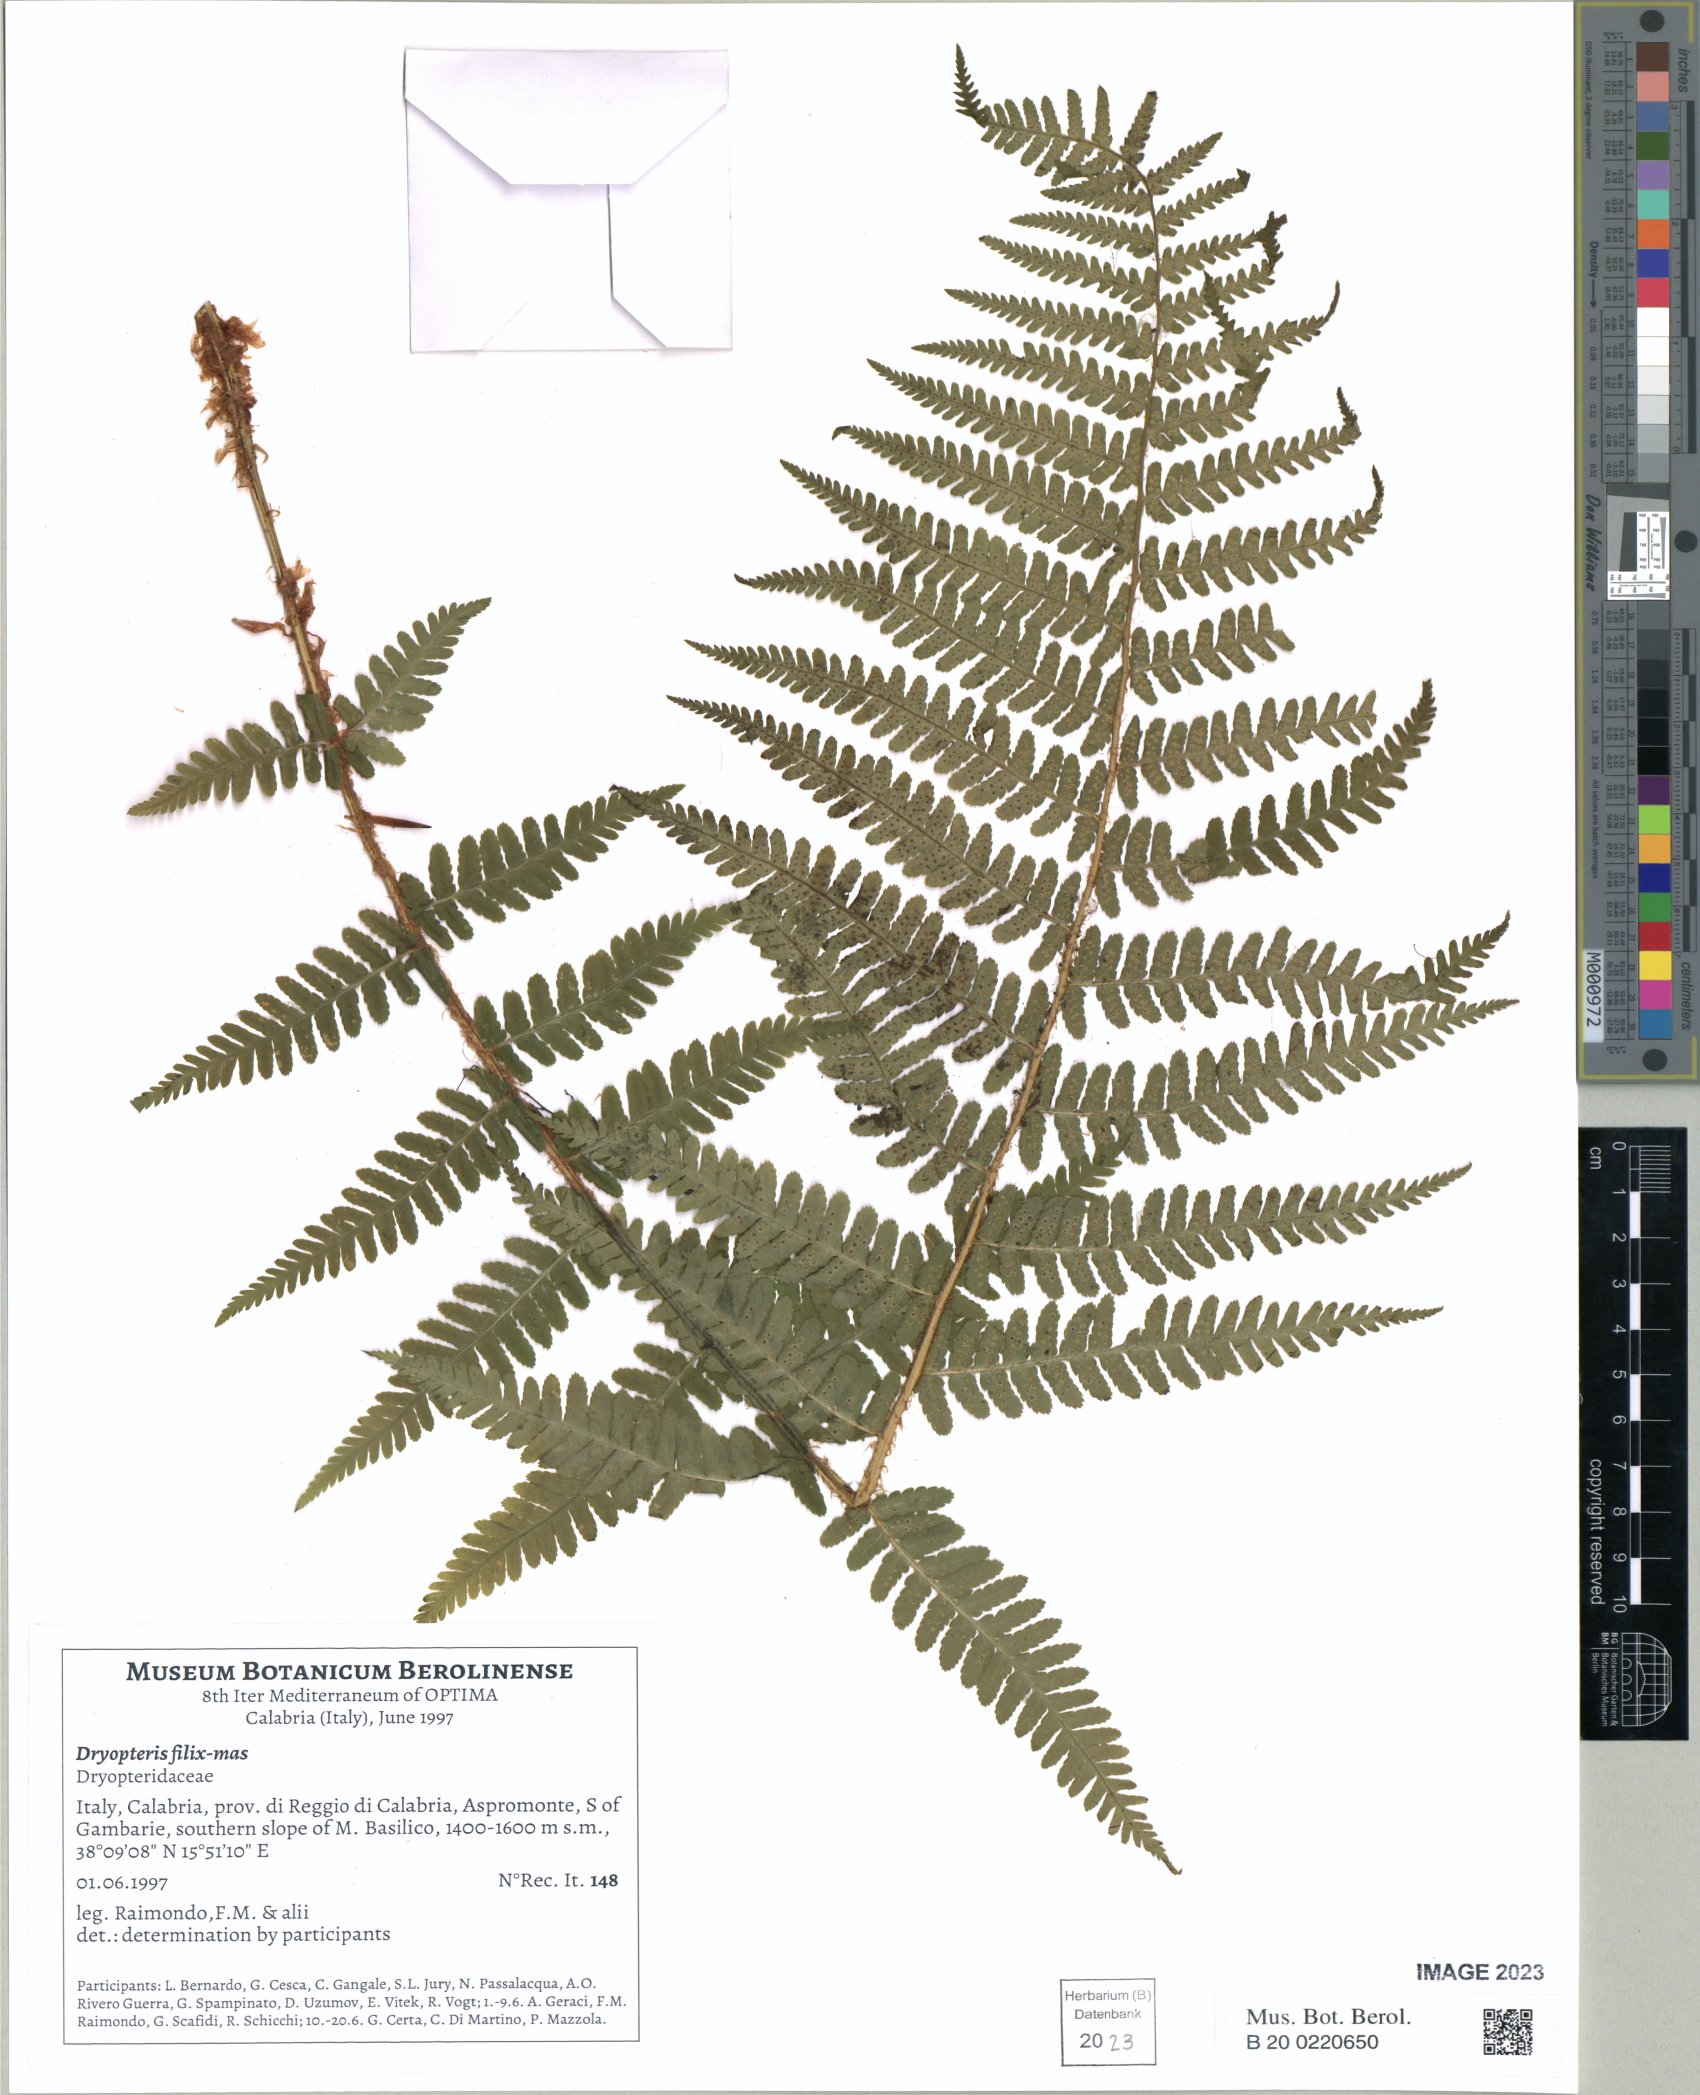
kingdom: Plantae
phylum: Tracheophyta
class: Polypodiopsida
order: Polypodiales
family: Dryopteridaceae
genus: Dryopteris
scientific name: Dryopteris filix-mas
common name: Male fern
